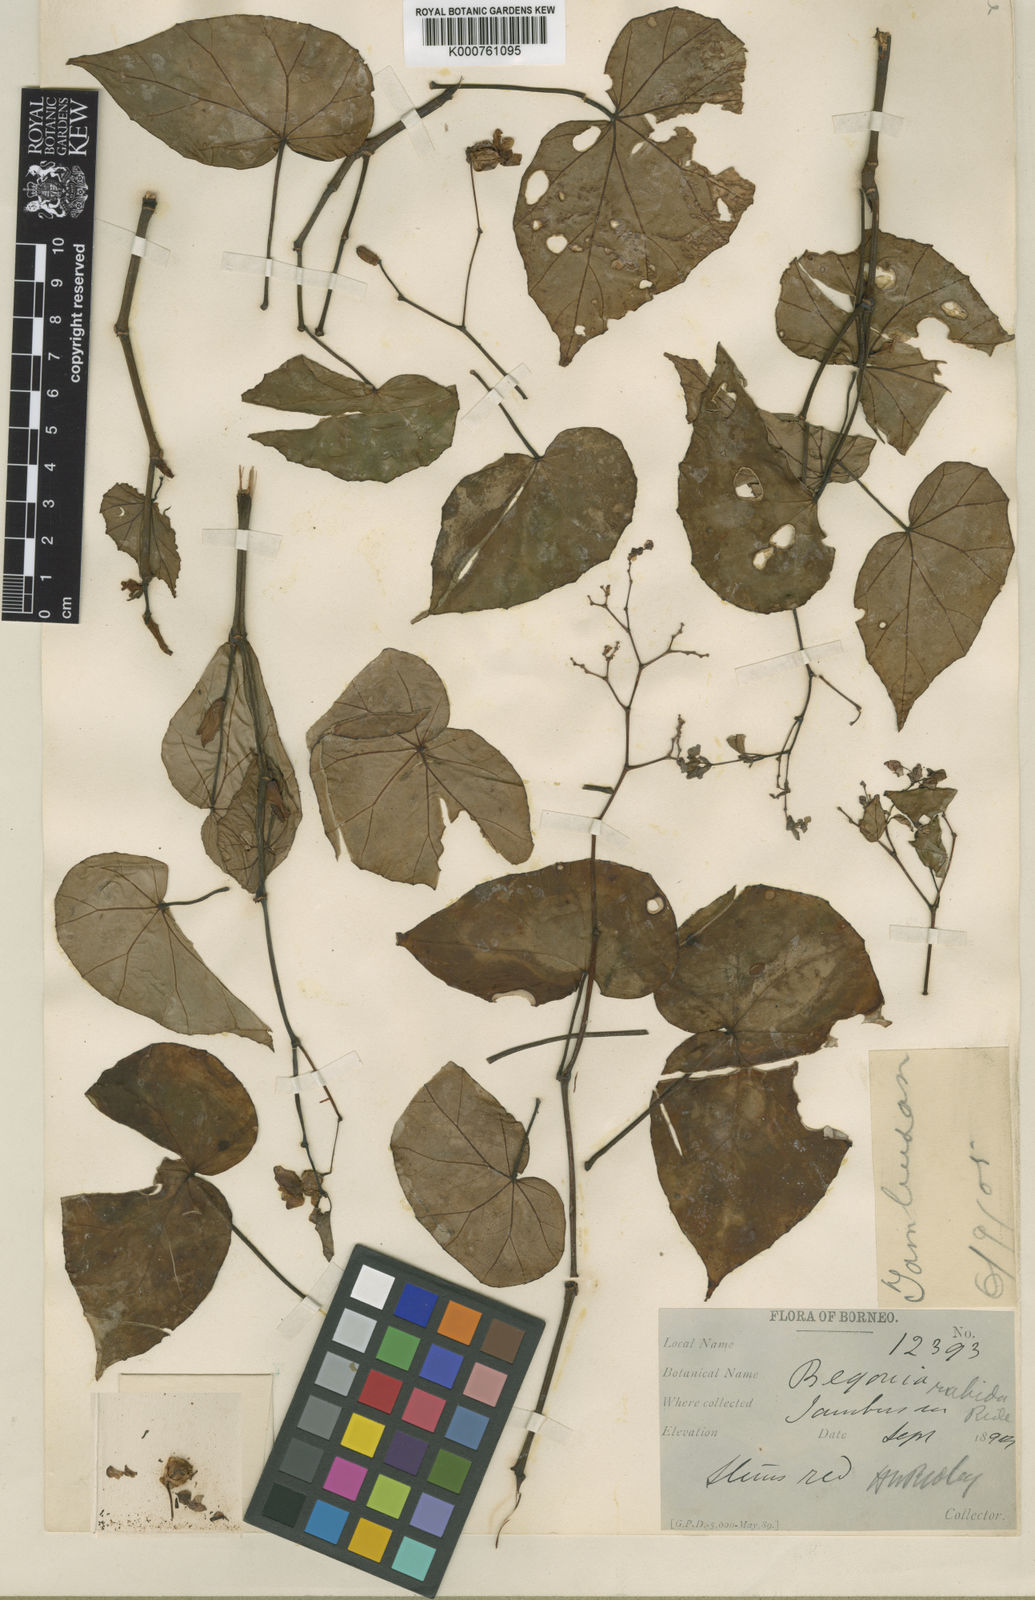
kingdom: Plantae
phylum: Tracheophyta
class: Magnoliopsida
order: Cucurbitales
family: Begoniaceae
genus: Begonia
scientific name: Begonia rubida
